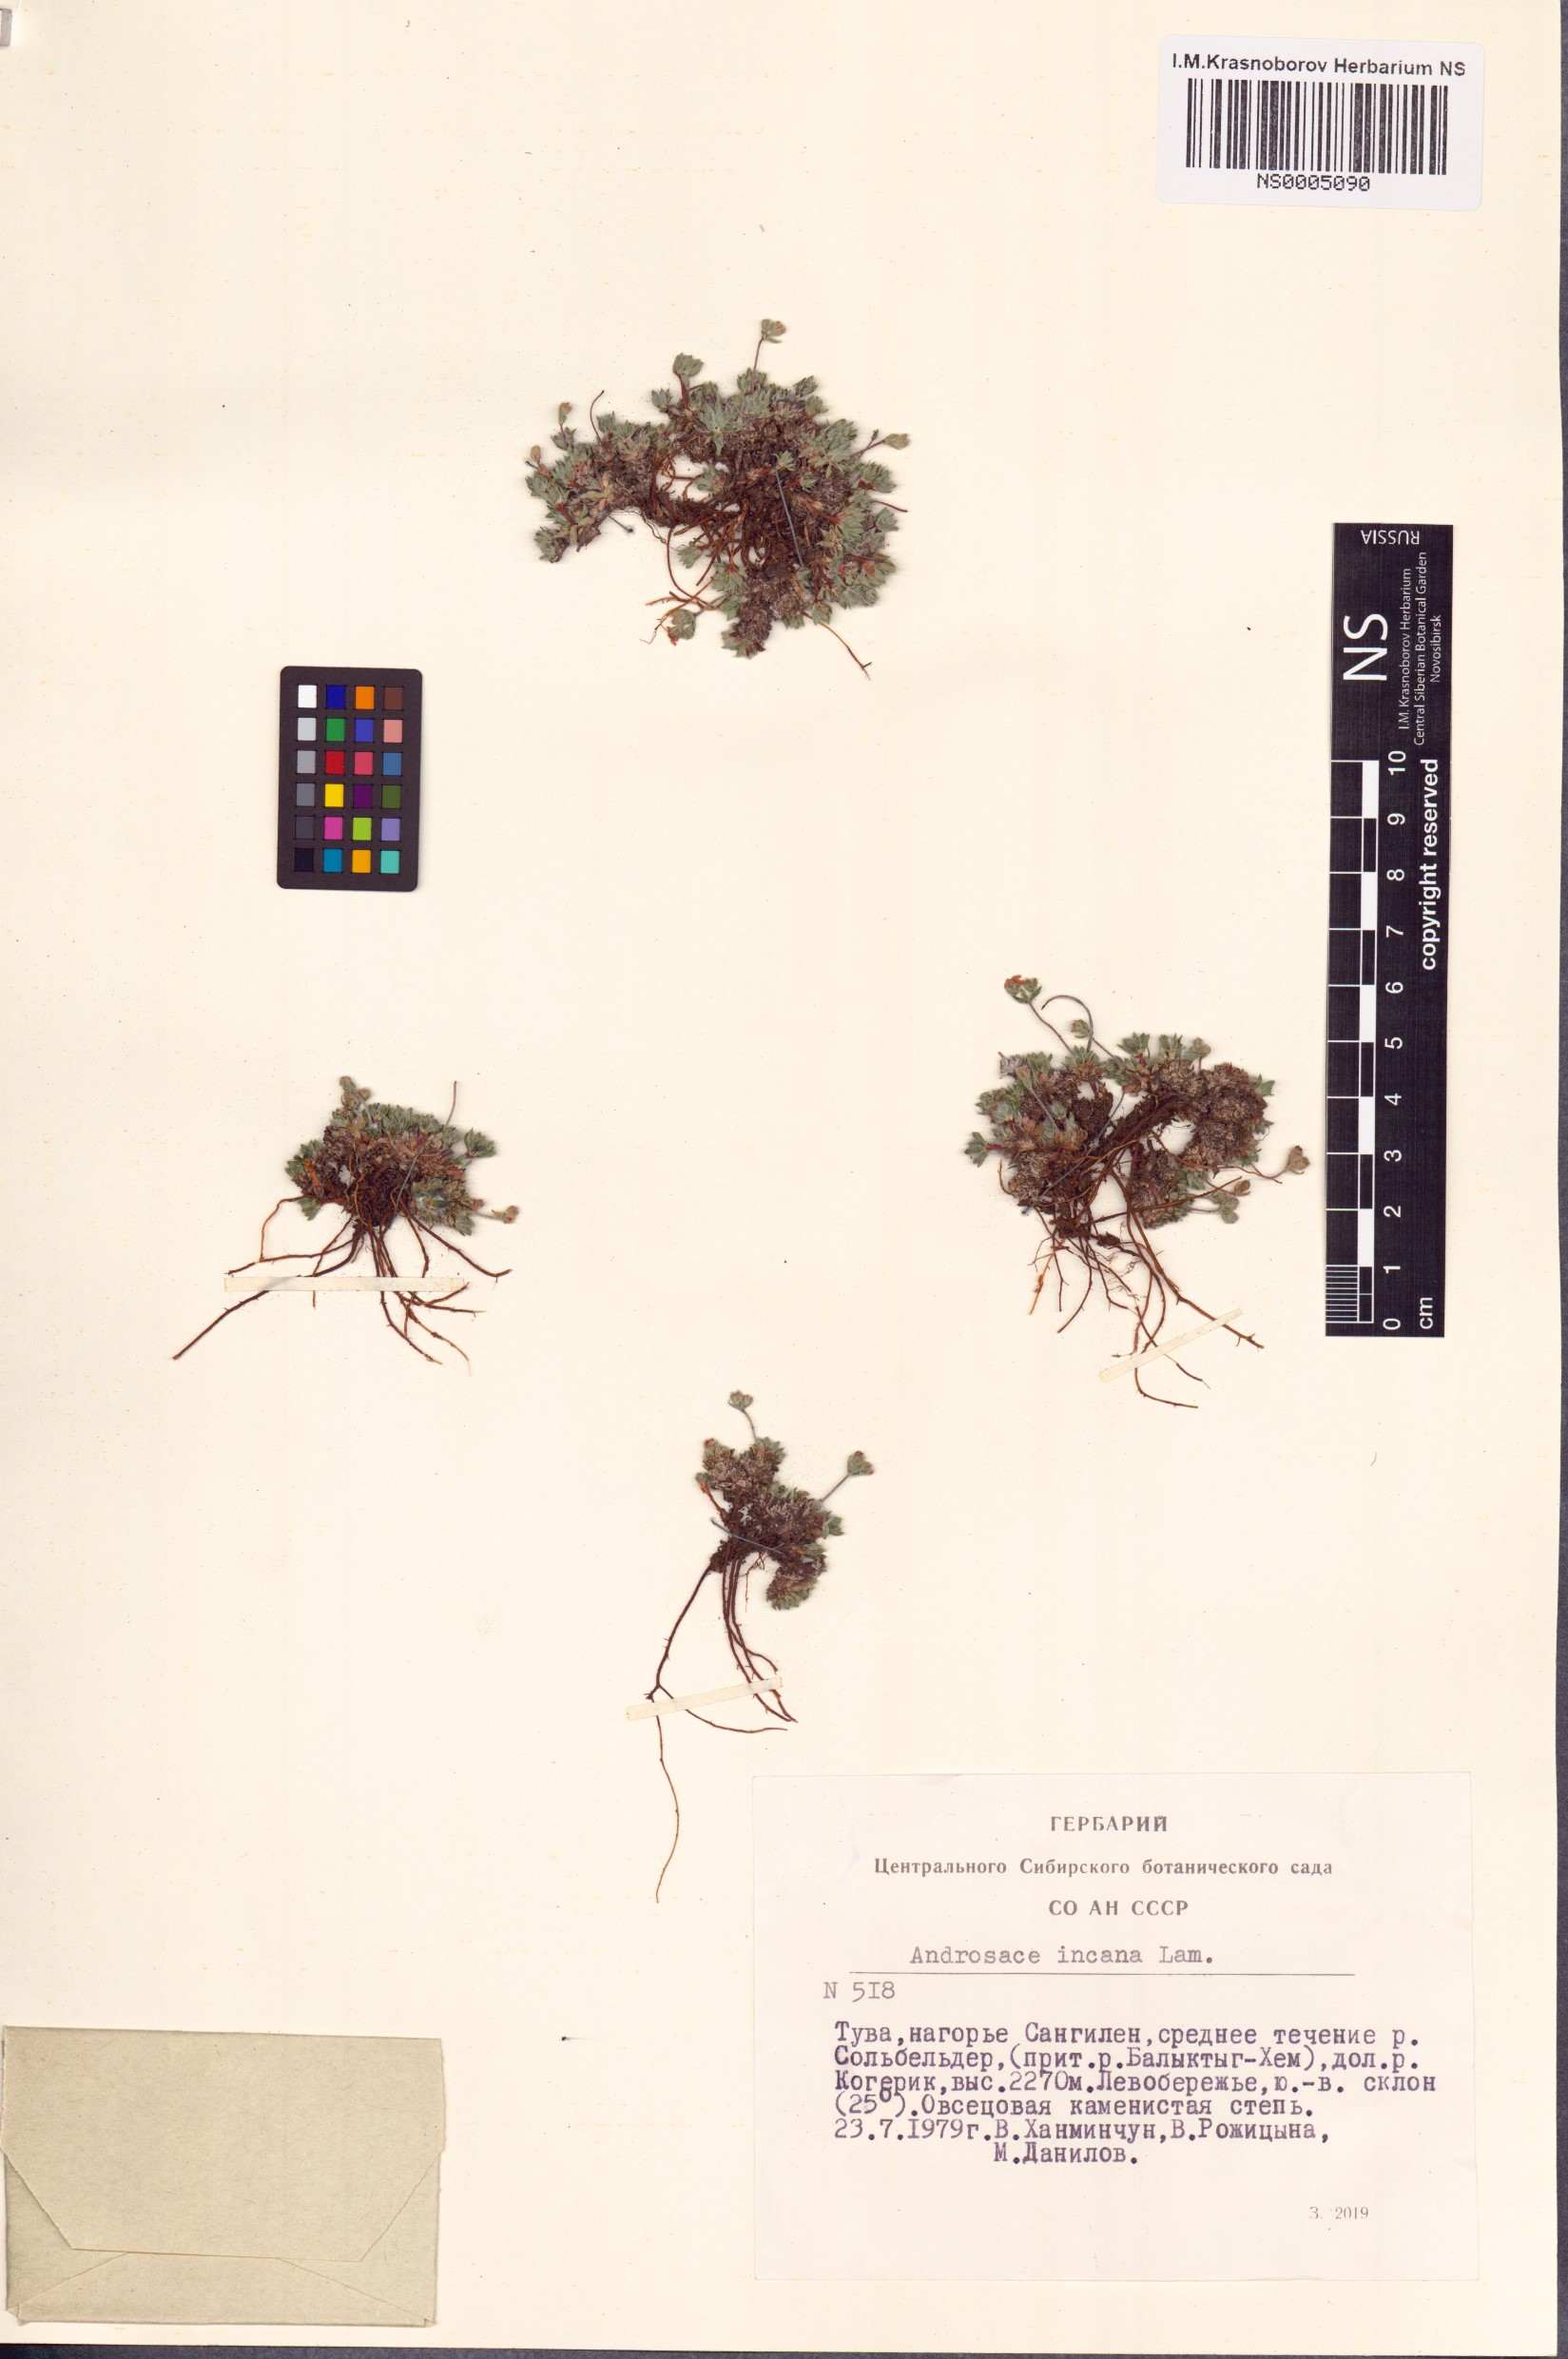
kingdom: Plantae
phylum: Tracheophyta
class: Magnoliopsida
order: Ericales
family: Primulaceae
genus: Androsace
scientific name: Androsace incana
